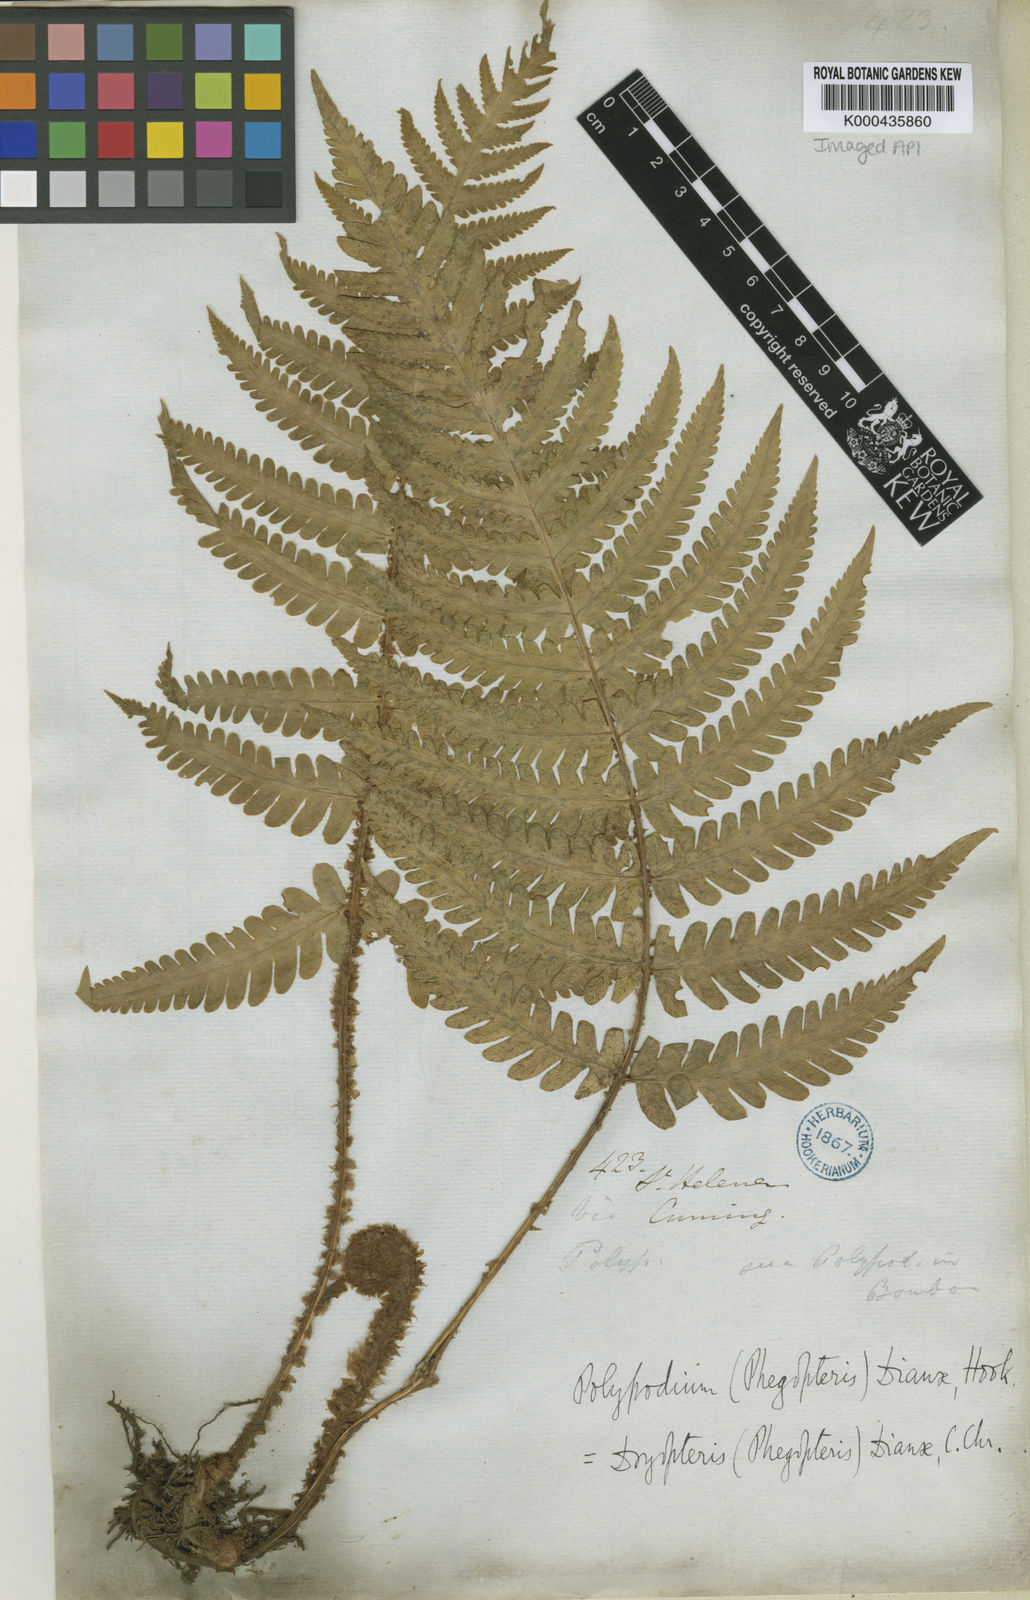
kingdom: Plantae
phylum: Tracheophyta
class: Polypodiopsida
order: Polypodiales
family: Thelypteridaceae
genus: Pseudophegopteris
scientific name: Pseudophegopteris dianae
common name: Brown-scale fern
